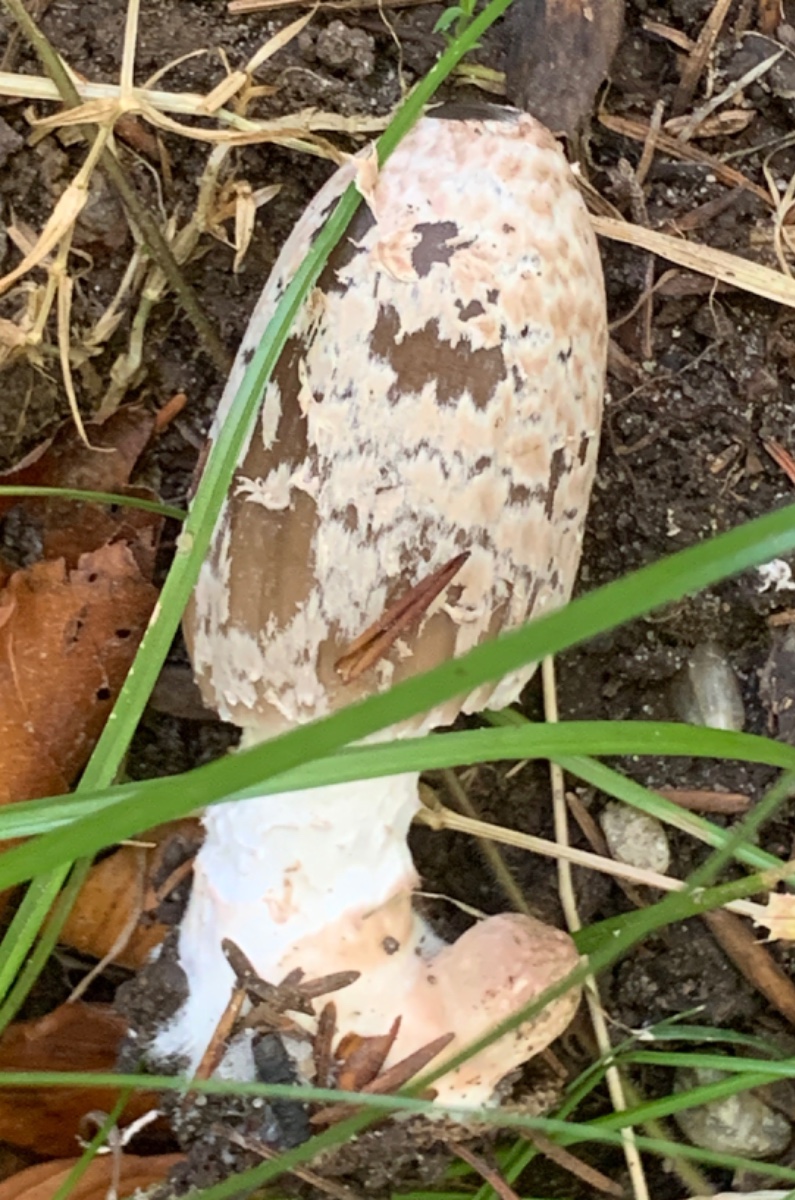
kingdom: Fungi
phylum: Basidiomycota
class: Agaricomycetes
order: Agaricales
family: Psathyrellaceae
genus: Coprinopsis
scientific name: Coprinopsis picacea
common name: skade-blækhat
